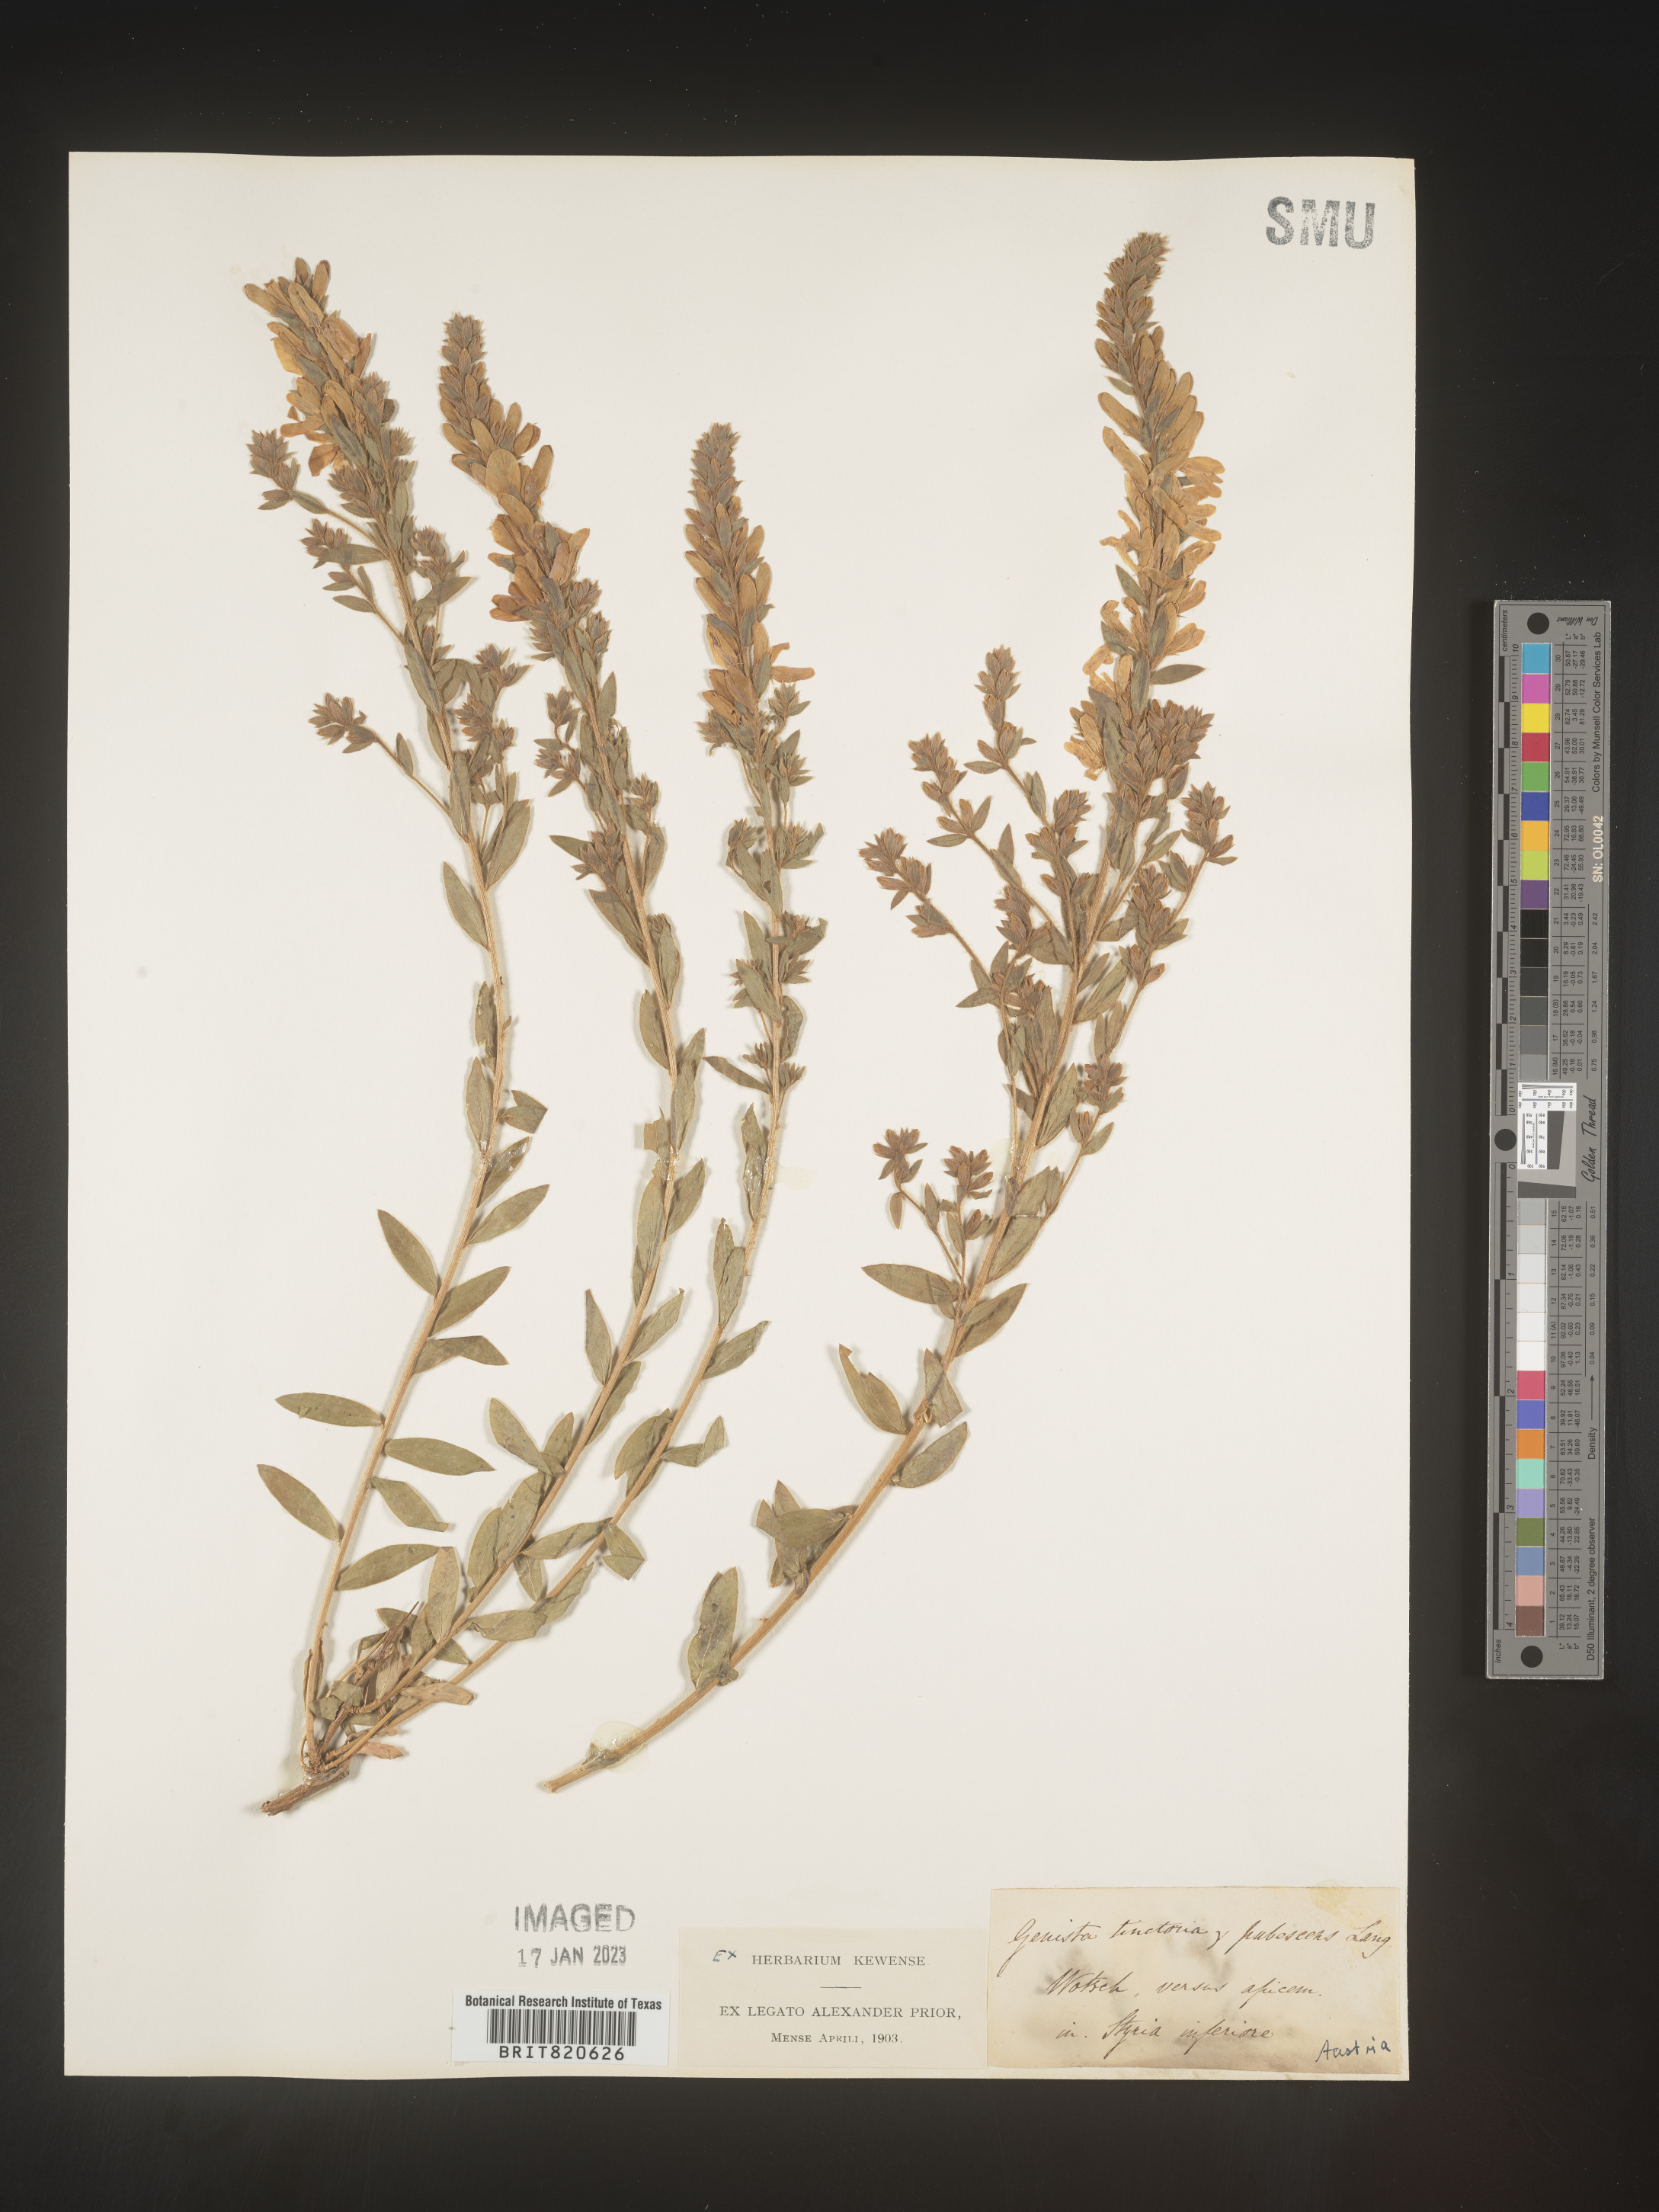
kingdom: Plantae
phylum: Tracheophyta
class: Magnoliopsida
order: Fabales
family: Fabaceae
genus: Genista
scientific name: Genista tinctoria
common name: Dyer's greenweed
